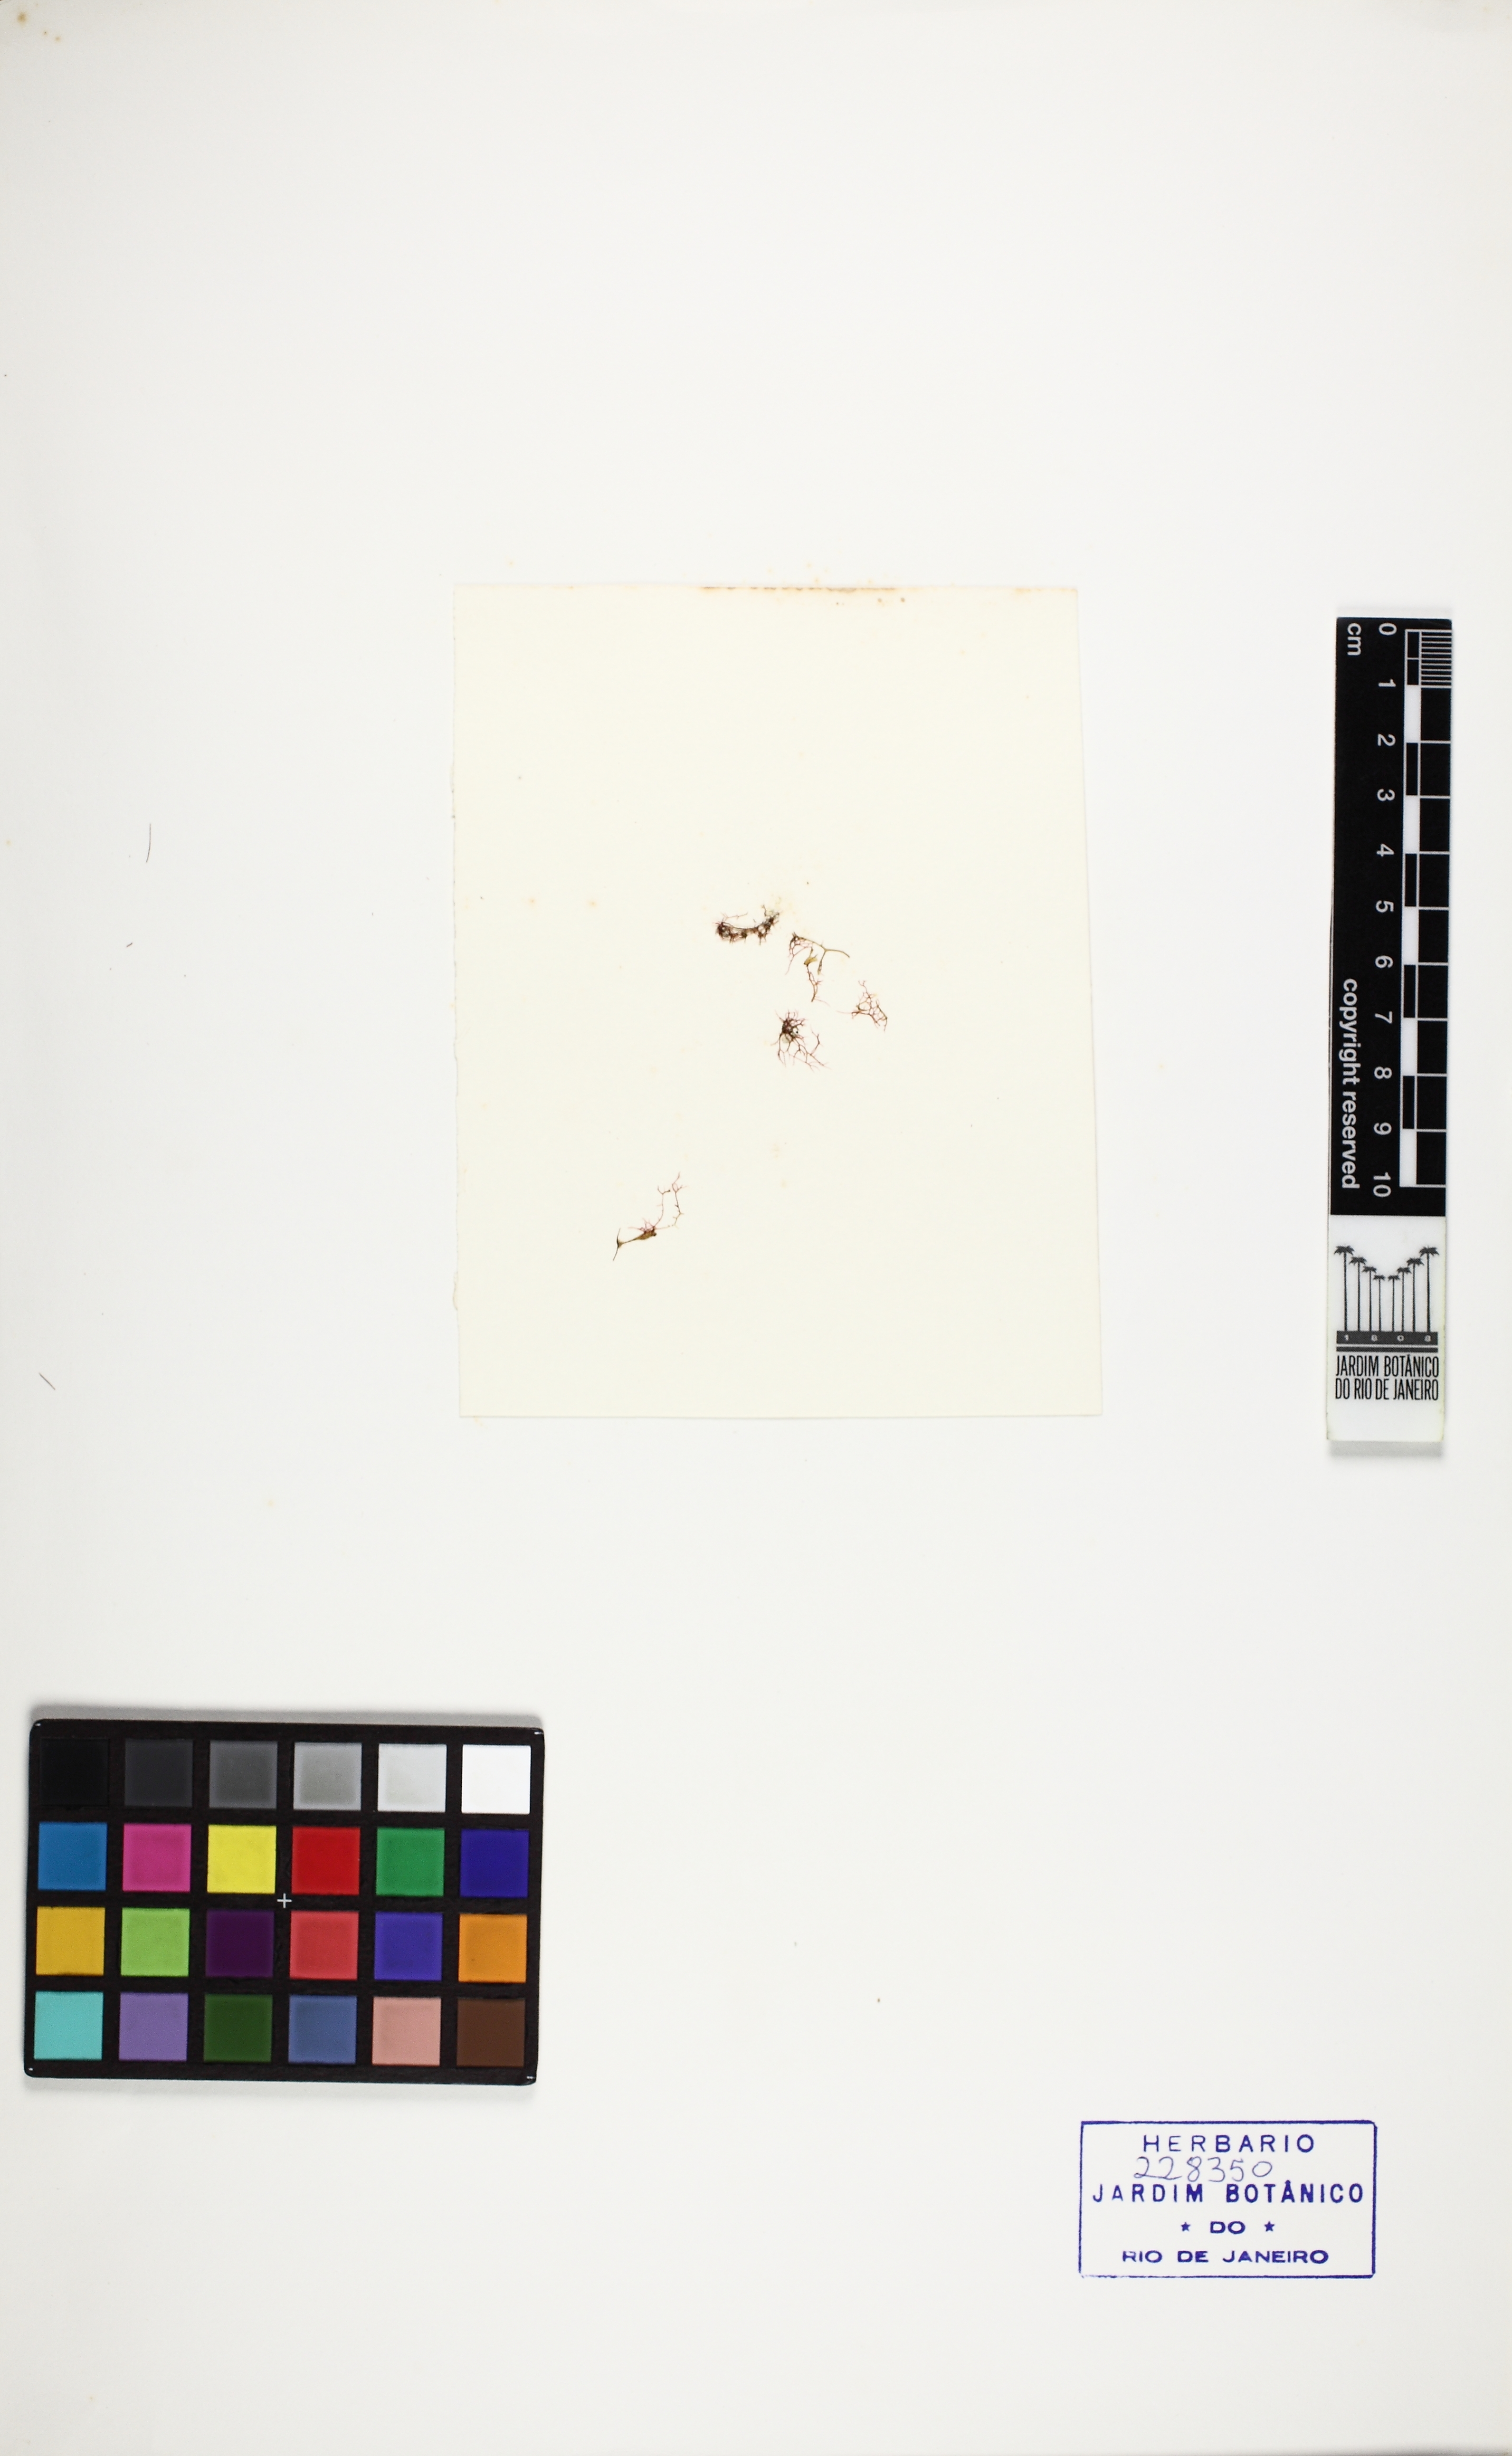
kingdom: Plantae
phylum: Rhodophyta
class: Florideophyceae
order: Gigartinales
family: Cystocloniaceae
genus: Hypnea
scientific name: Hypnea cervicornis
